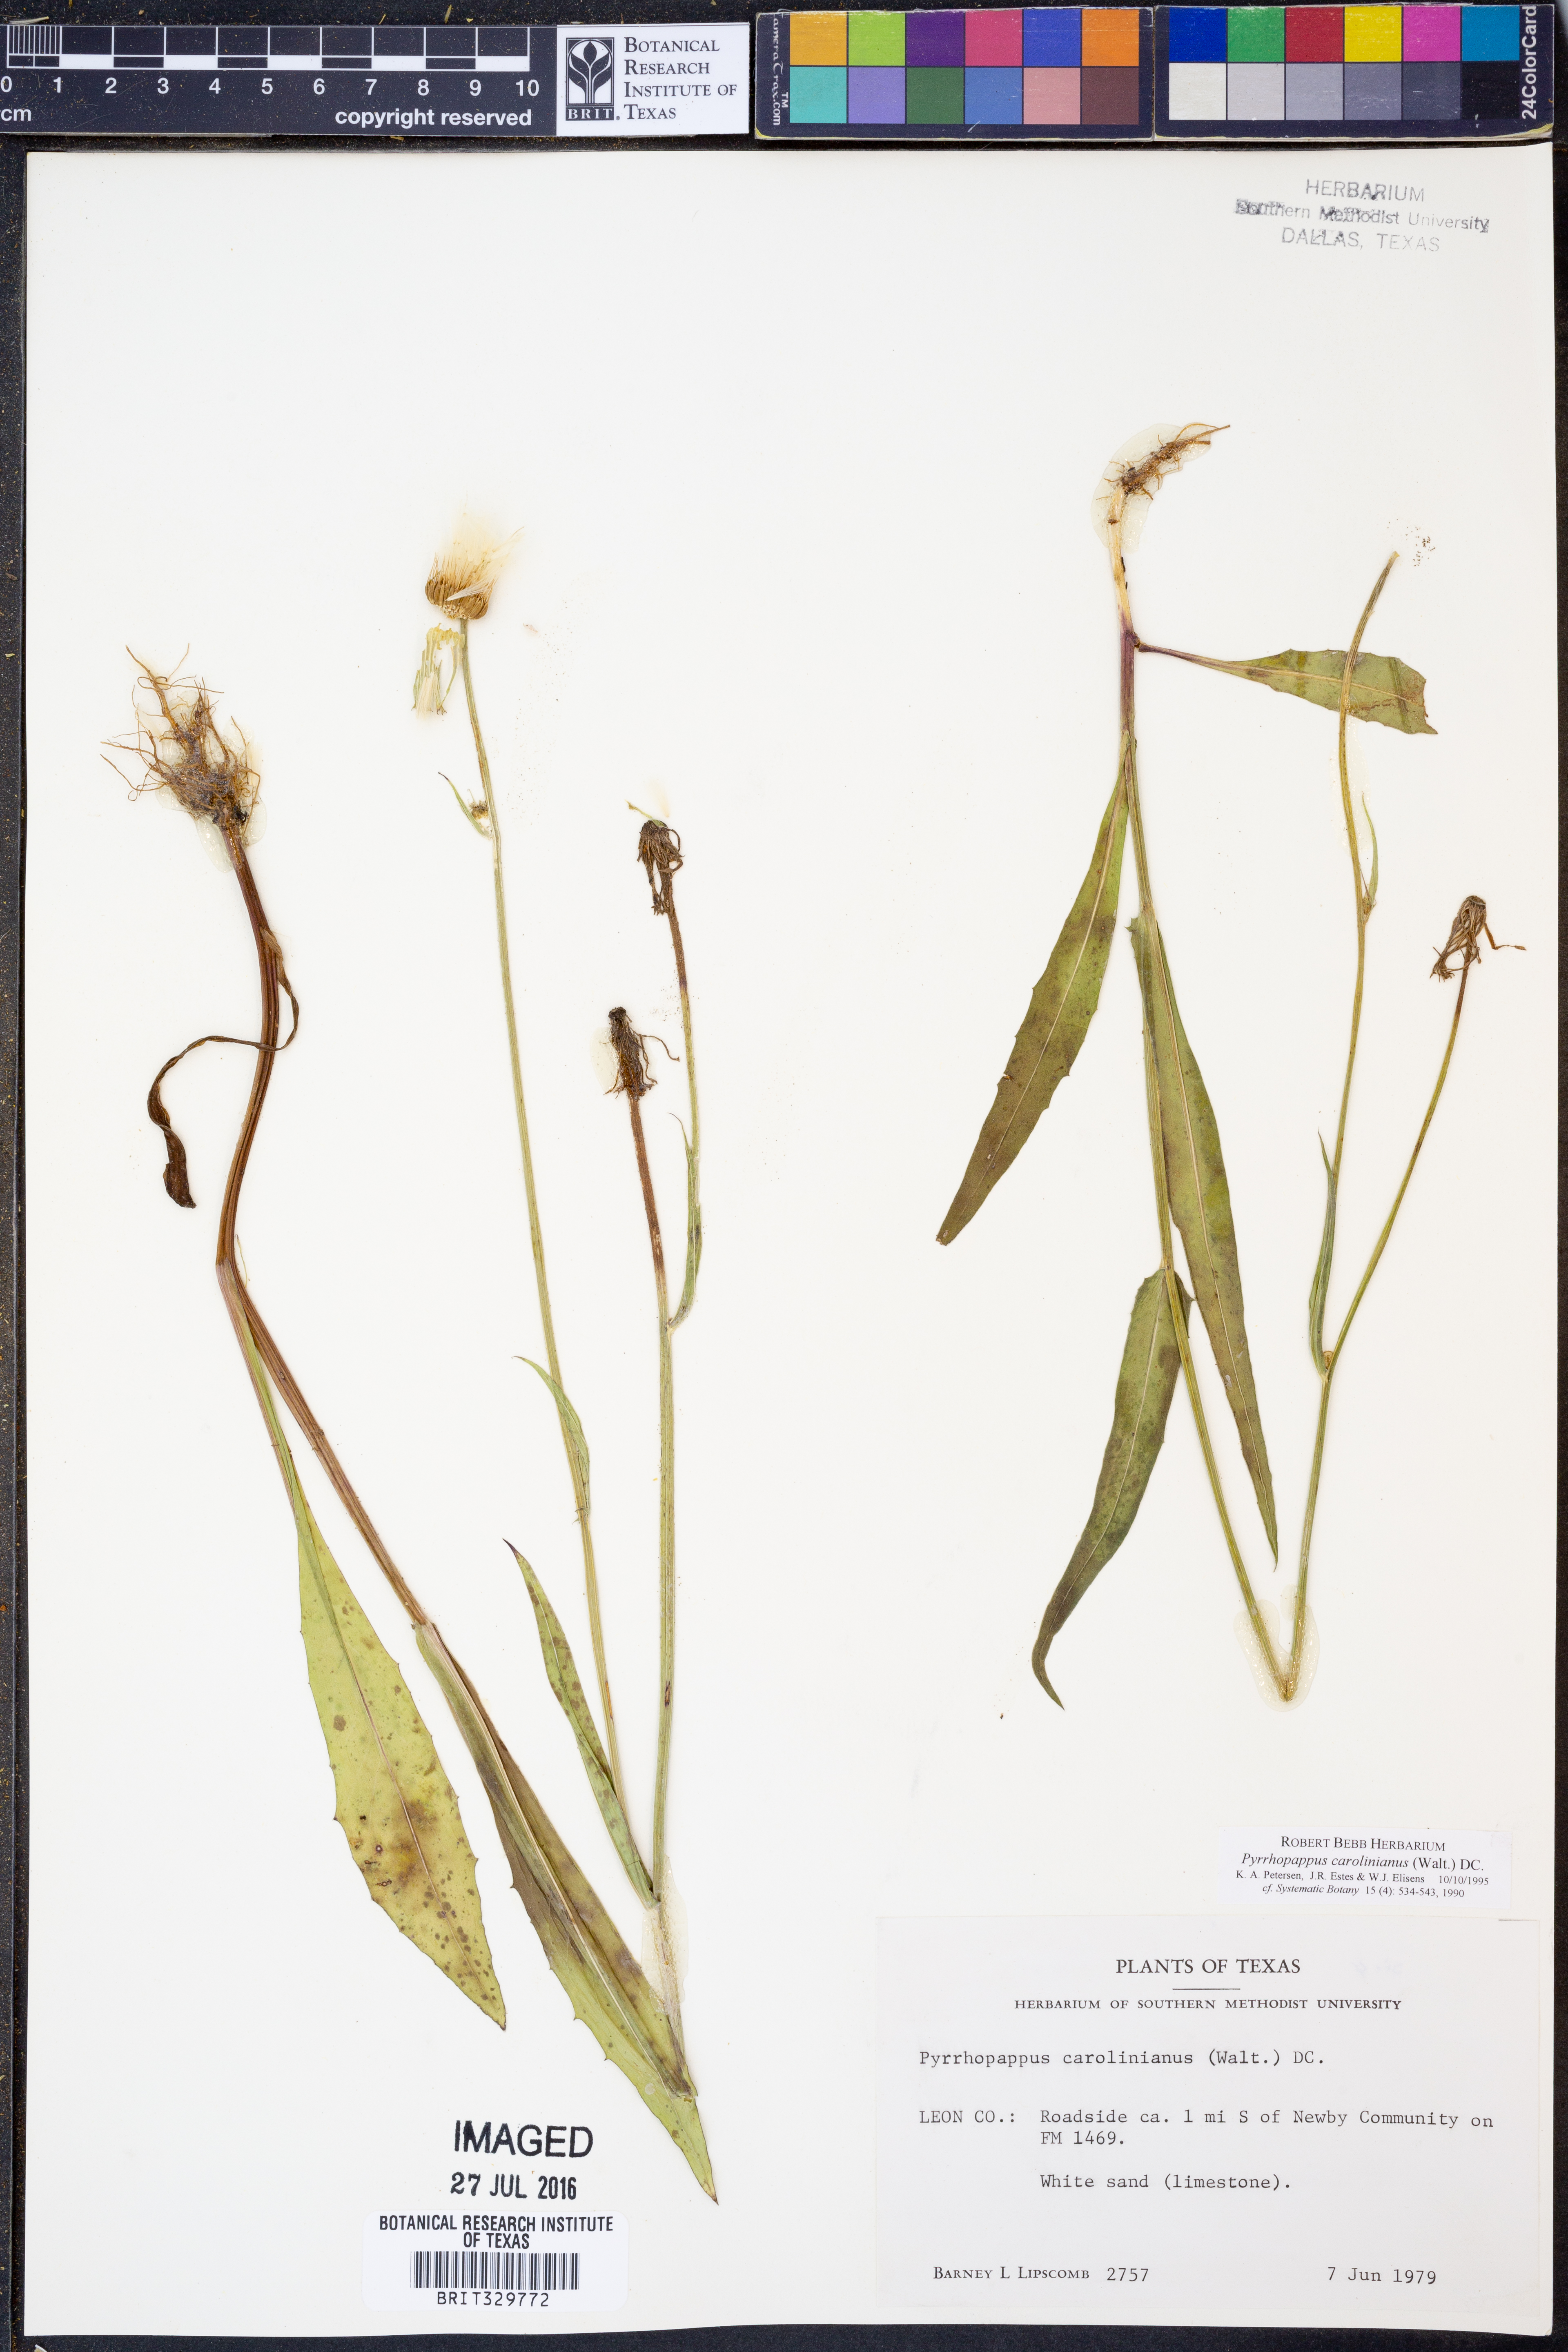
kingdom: Plantae
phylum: Tracheophyta
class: Magnoliopsida
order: Asterales
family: Asteraceae
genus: Pyrrhopappus
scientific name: Pyrrhopappus carolinianus
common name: Carolina desert-chicory
